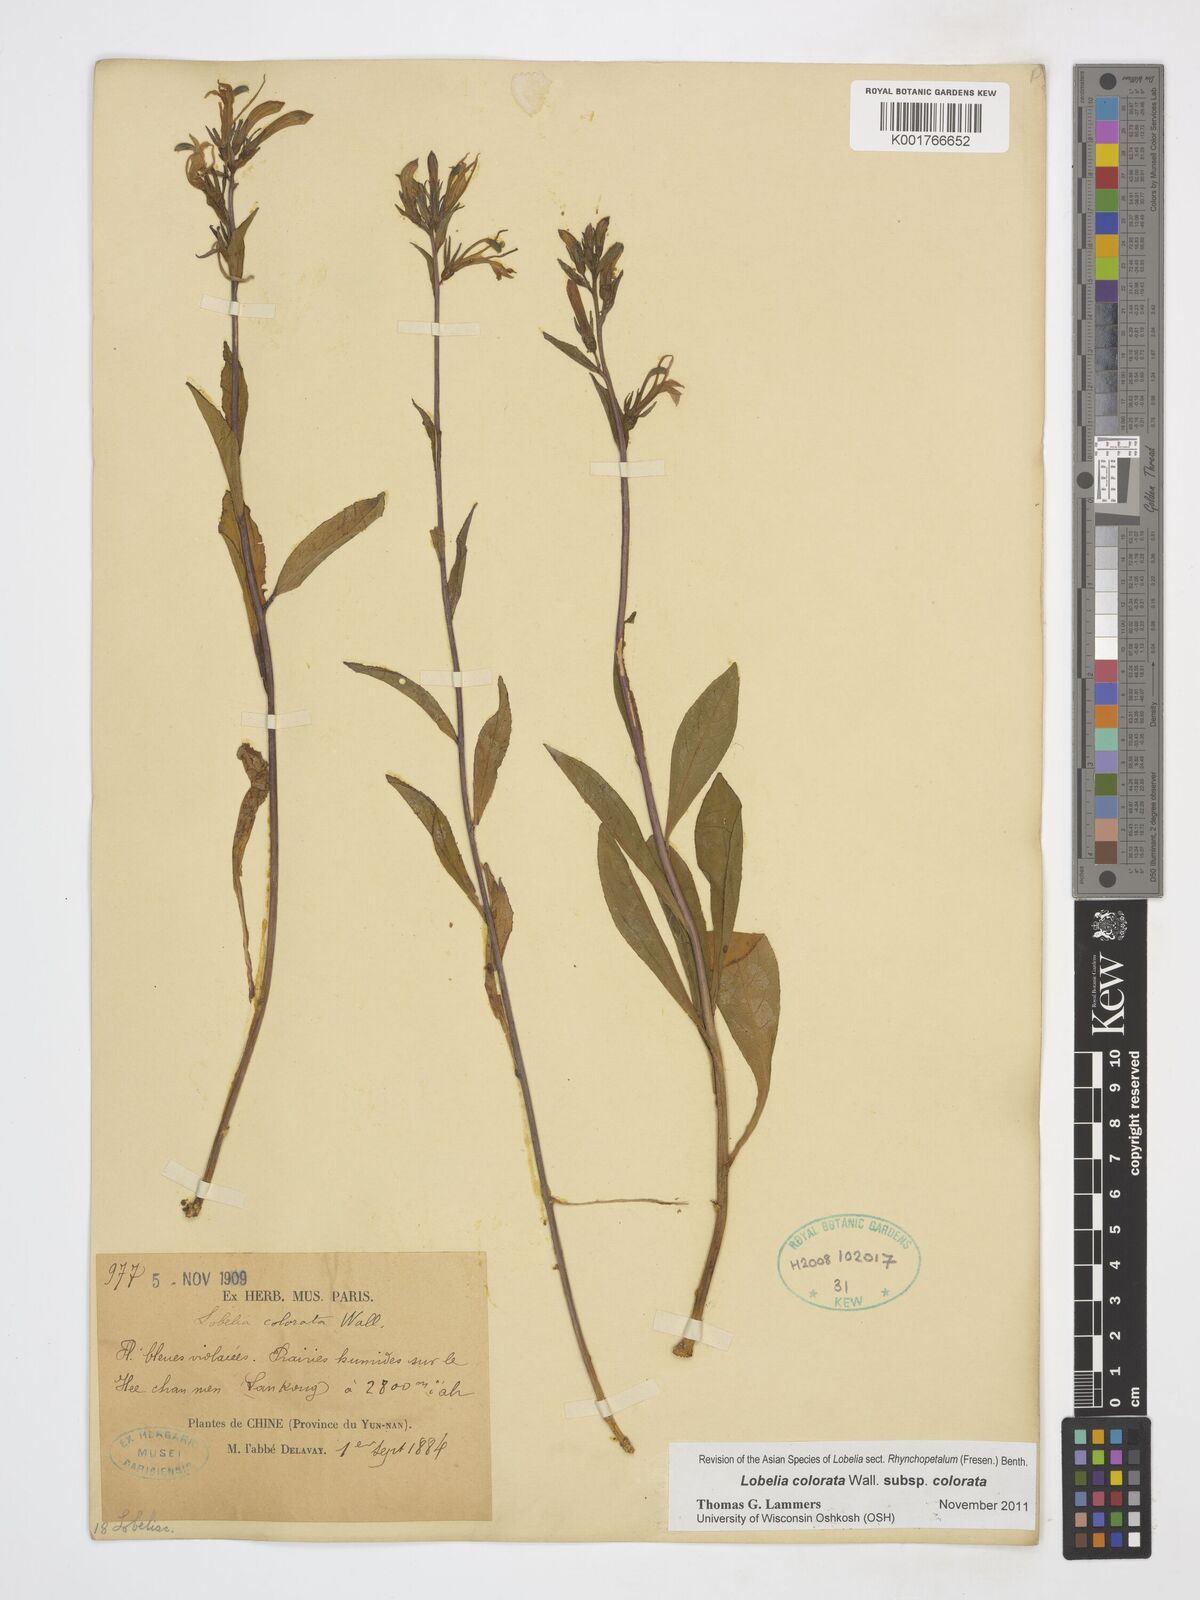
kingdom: Plantae
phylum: Tracheophyta
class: Magnoliopsida
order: Asterales
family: Campanulaceae
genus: Lobelia
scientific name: Lobelia nicotianifolia
